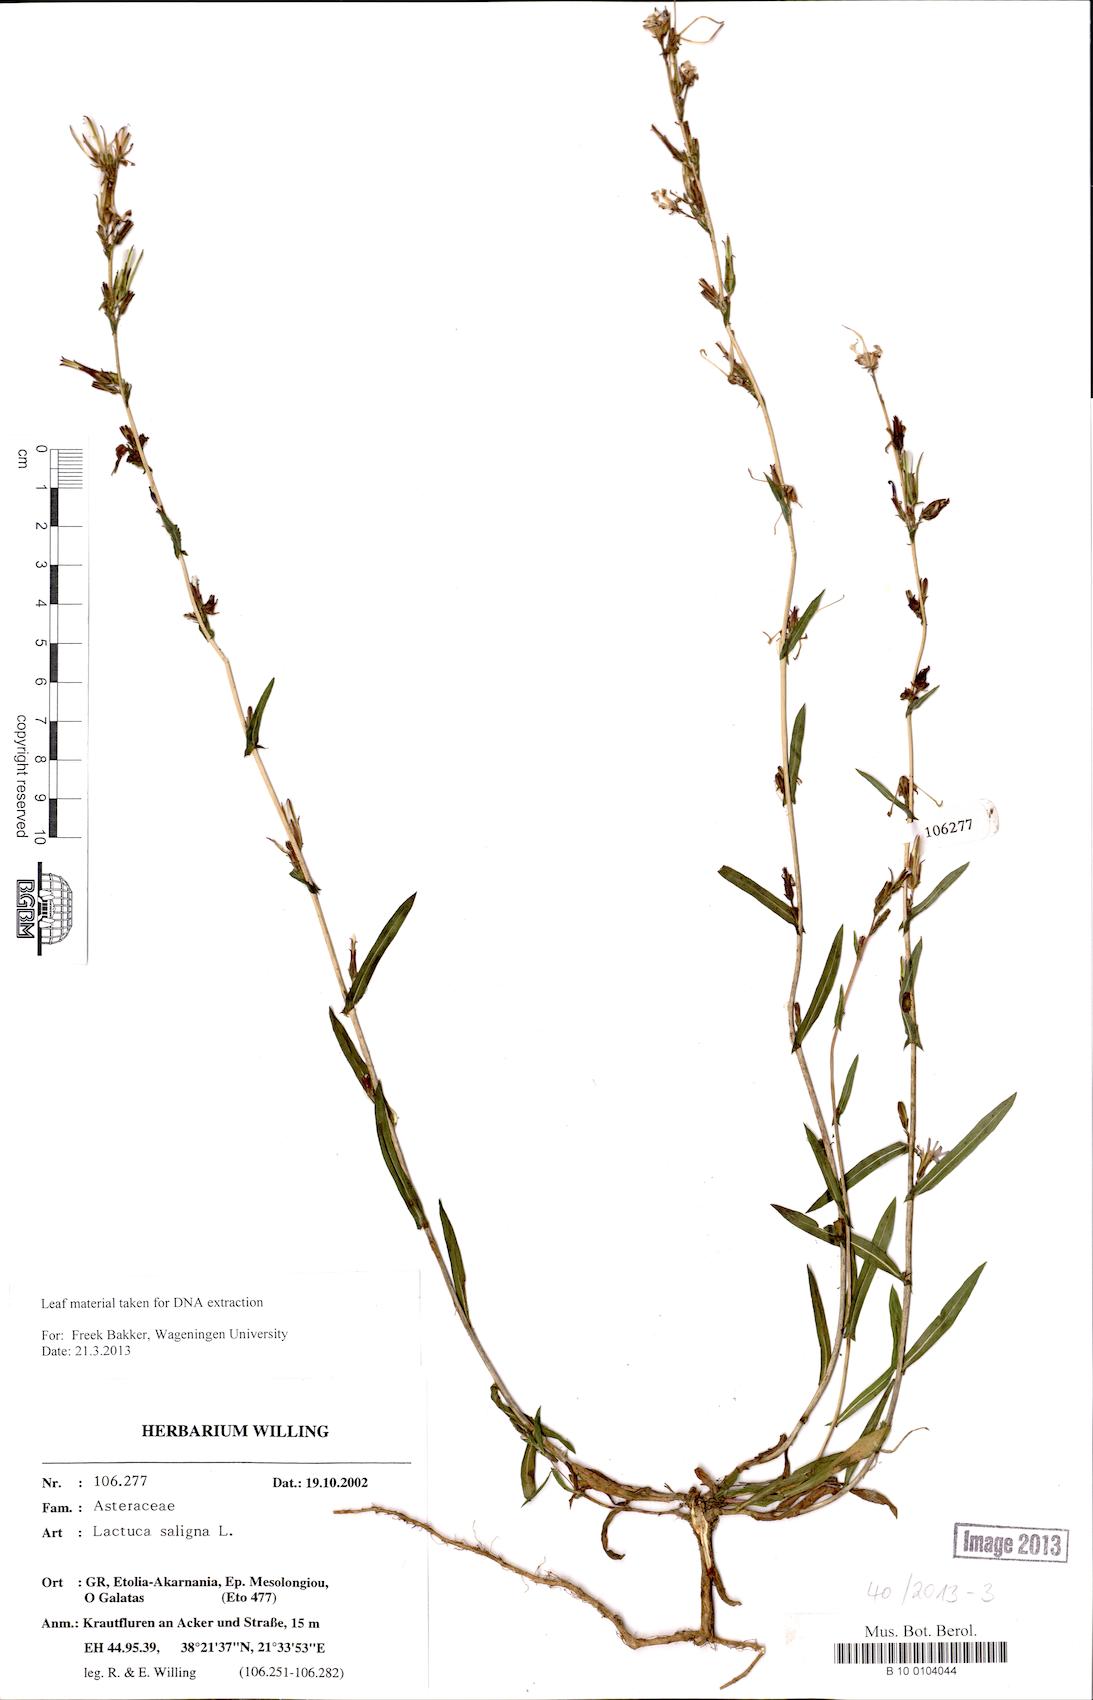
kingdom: Plantae
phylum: Tracheophyta
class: Magnoliopsida
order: Asterales
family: Asteraceae
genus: Lactuca
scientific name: Lactuca saligna
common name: Wild lettuce
